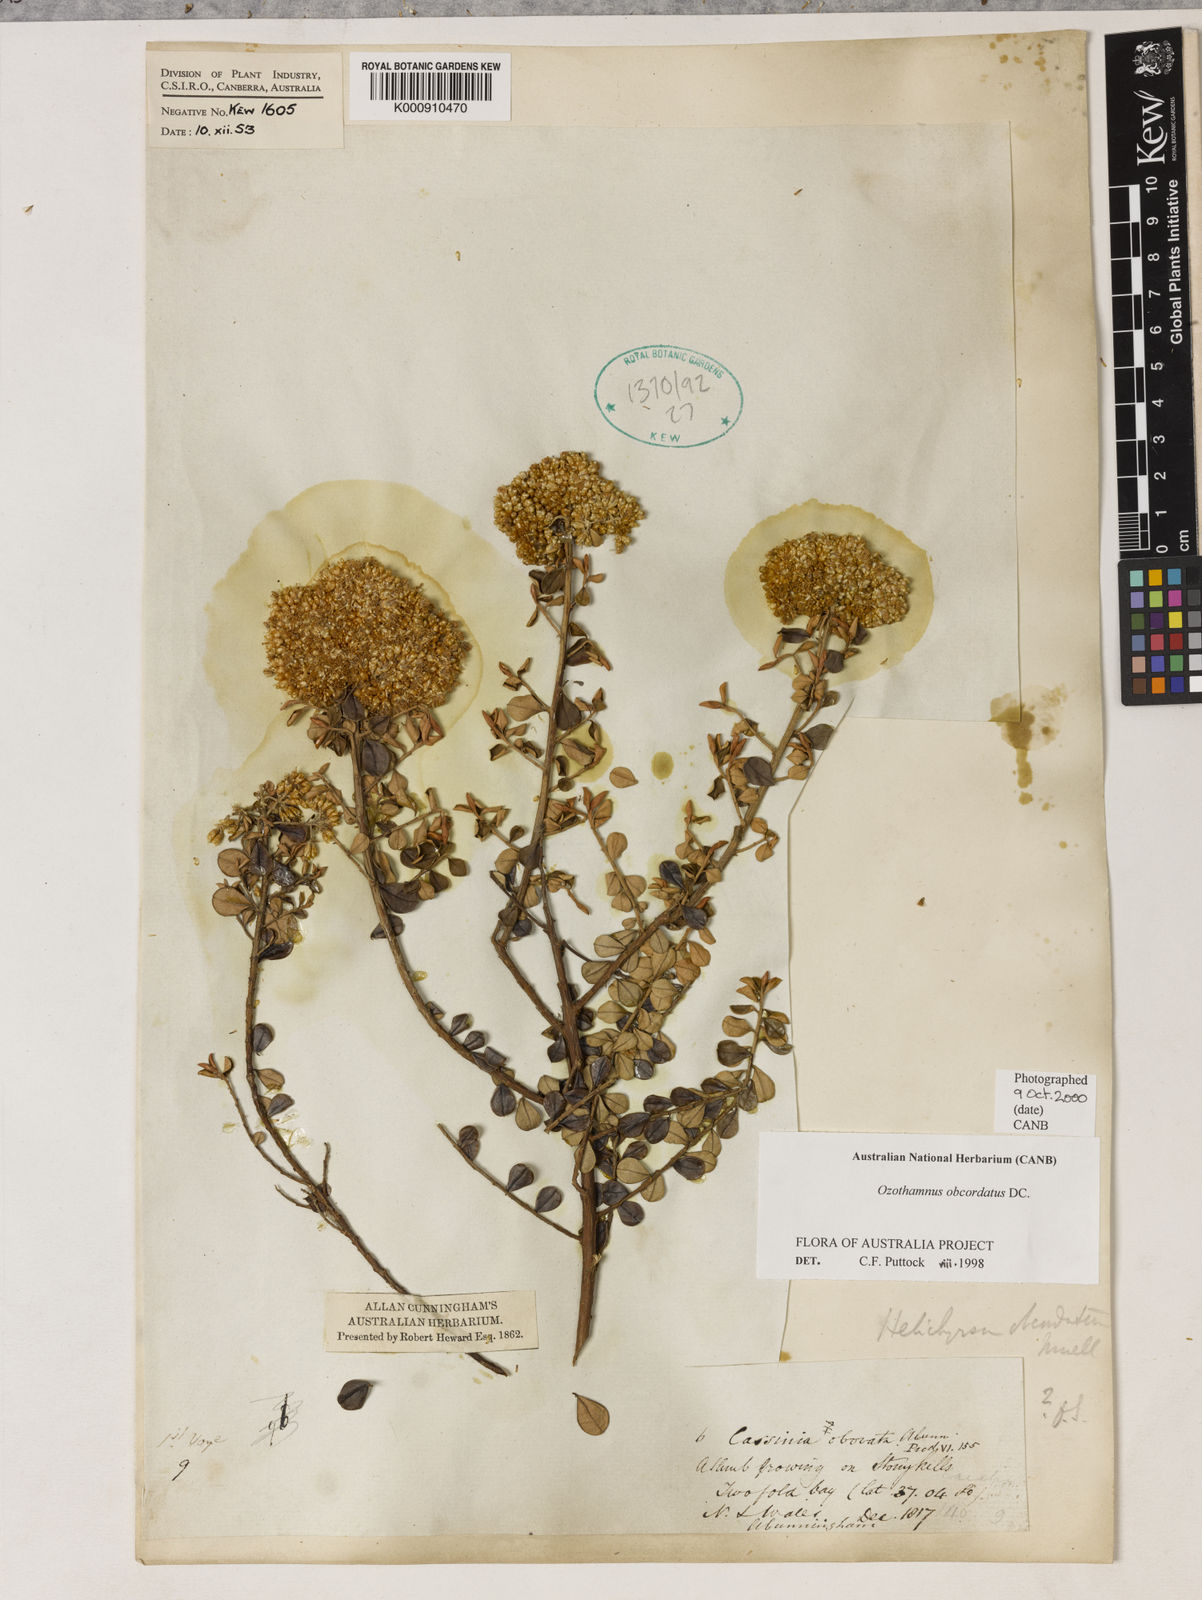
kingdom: Plantae
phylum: Tracheophyta
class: Magnoliopsida
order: Asterales
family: Asteraceae
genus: Ozothamnus
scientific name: Ozothamnus obcordatus
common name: Grey everlasting
